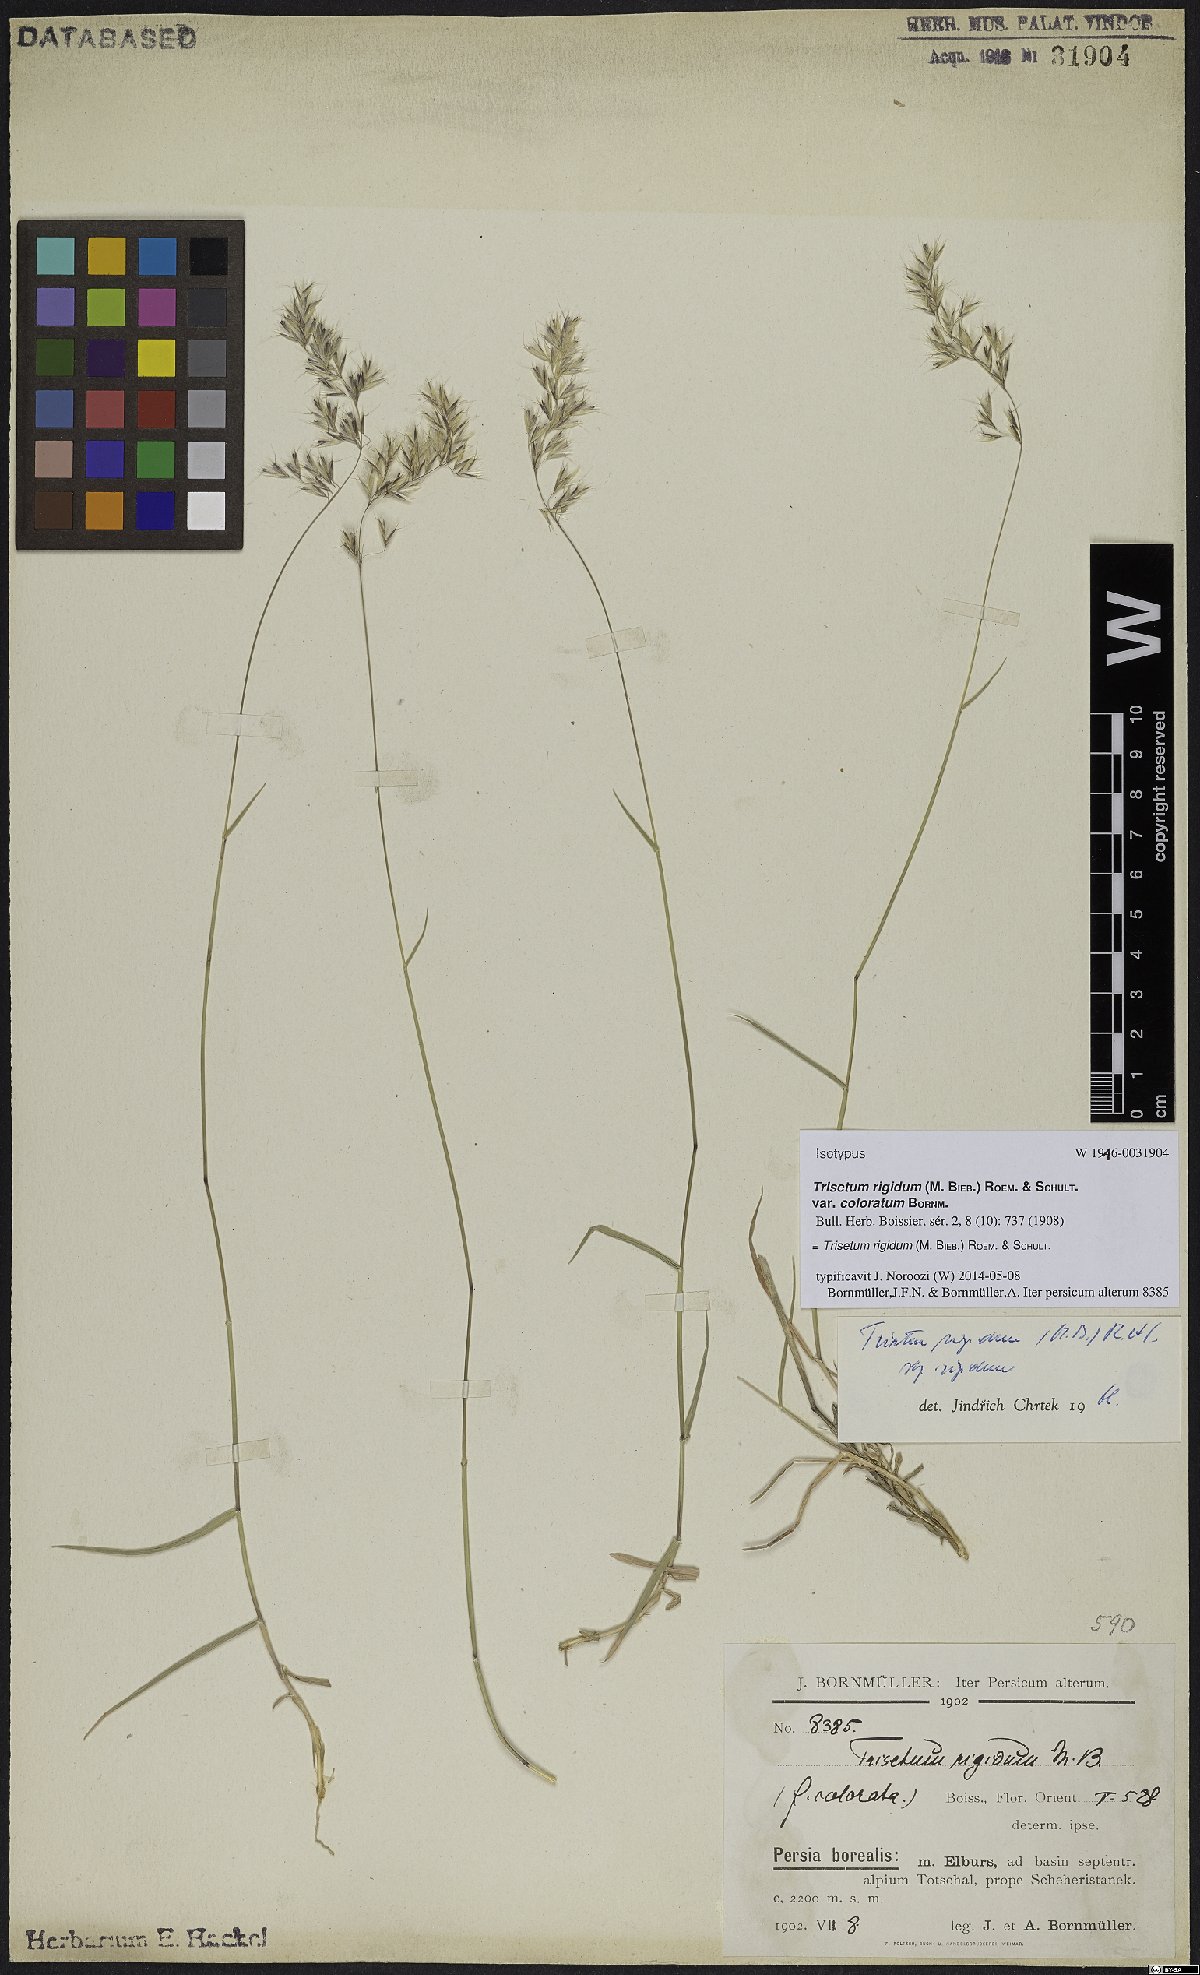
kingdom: Plantae
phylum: Tracheophyta
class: Liliopsida
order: Poales
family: Poaceae
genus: Trisetum
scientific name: Trisetum rigidum
